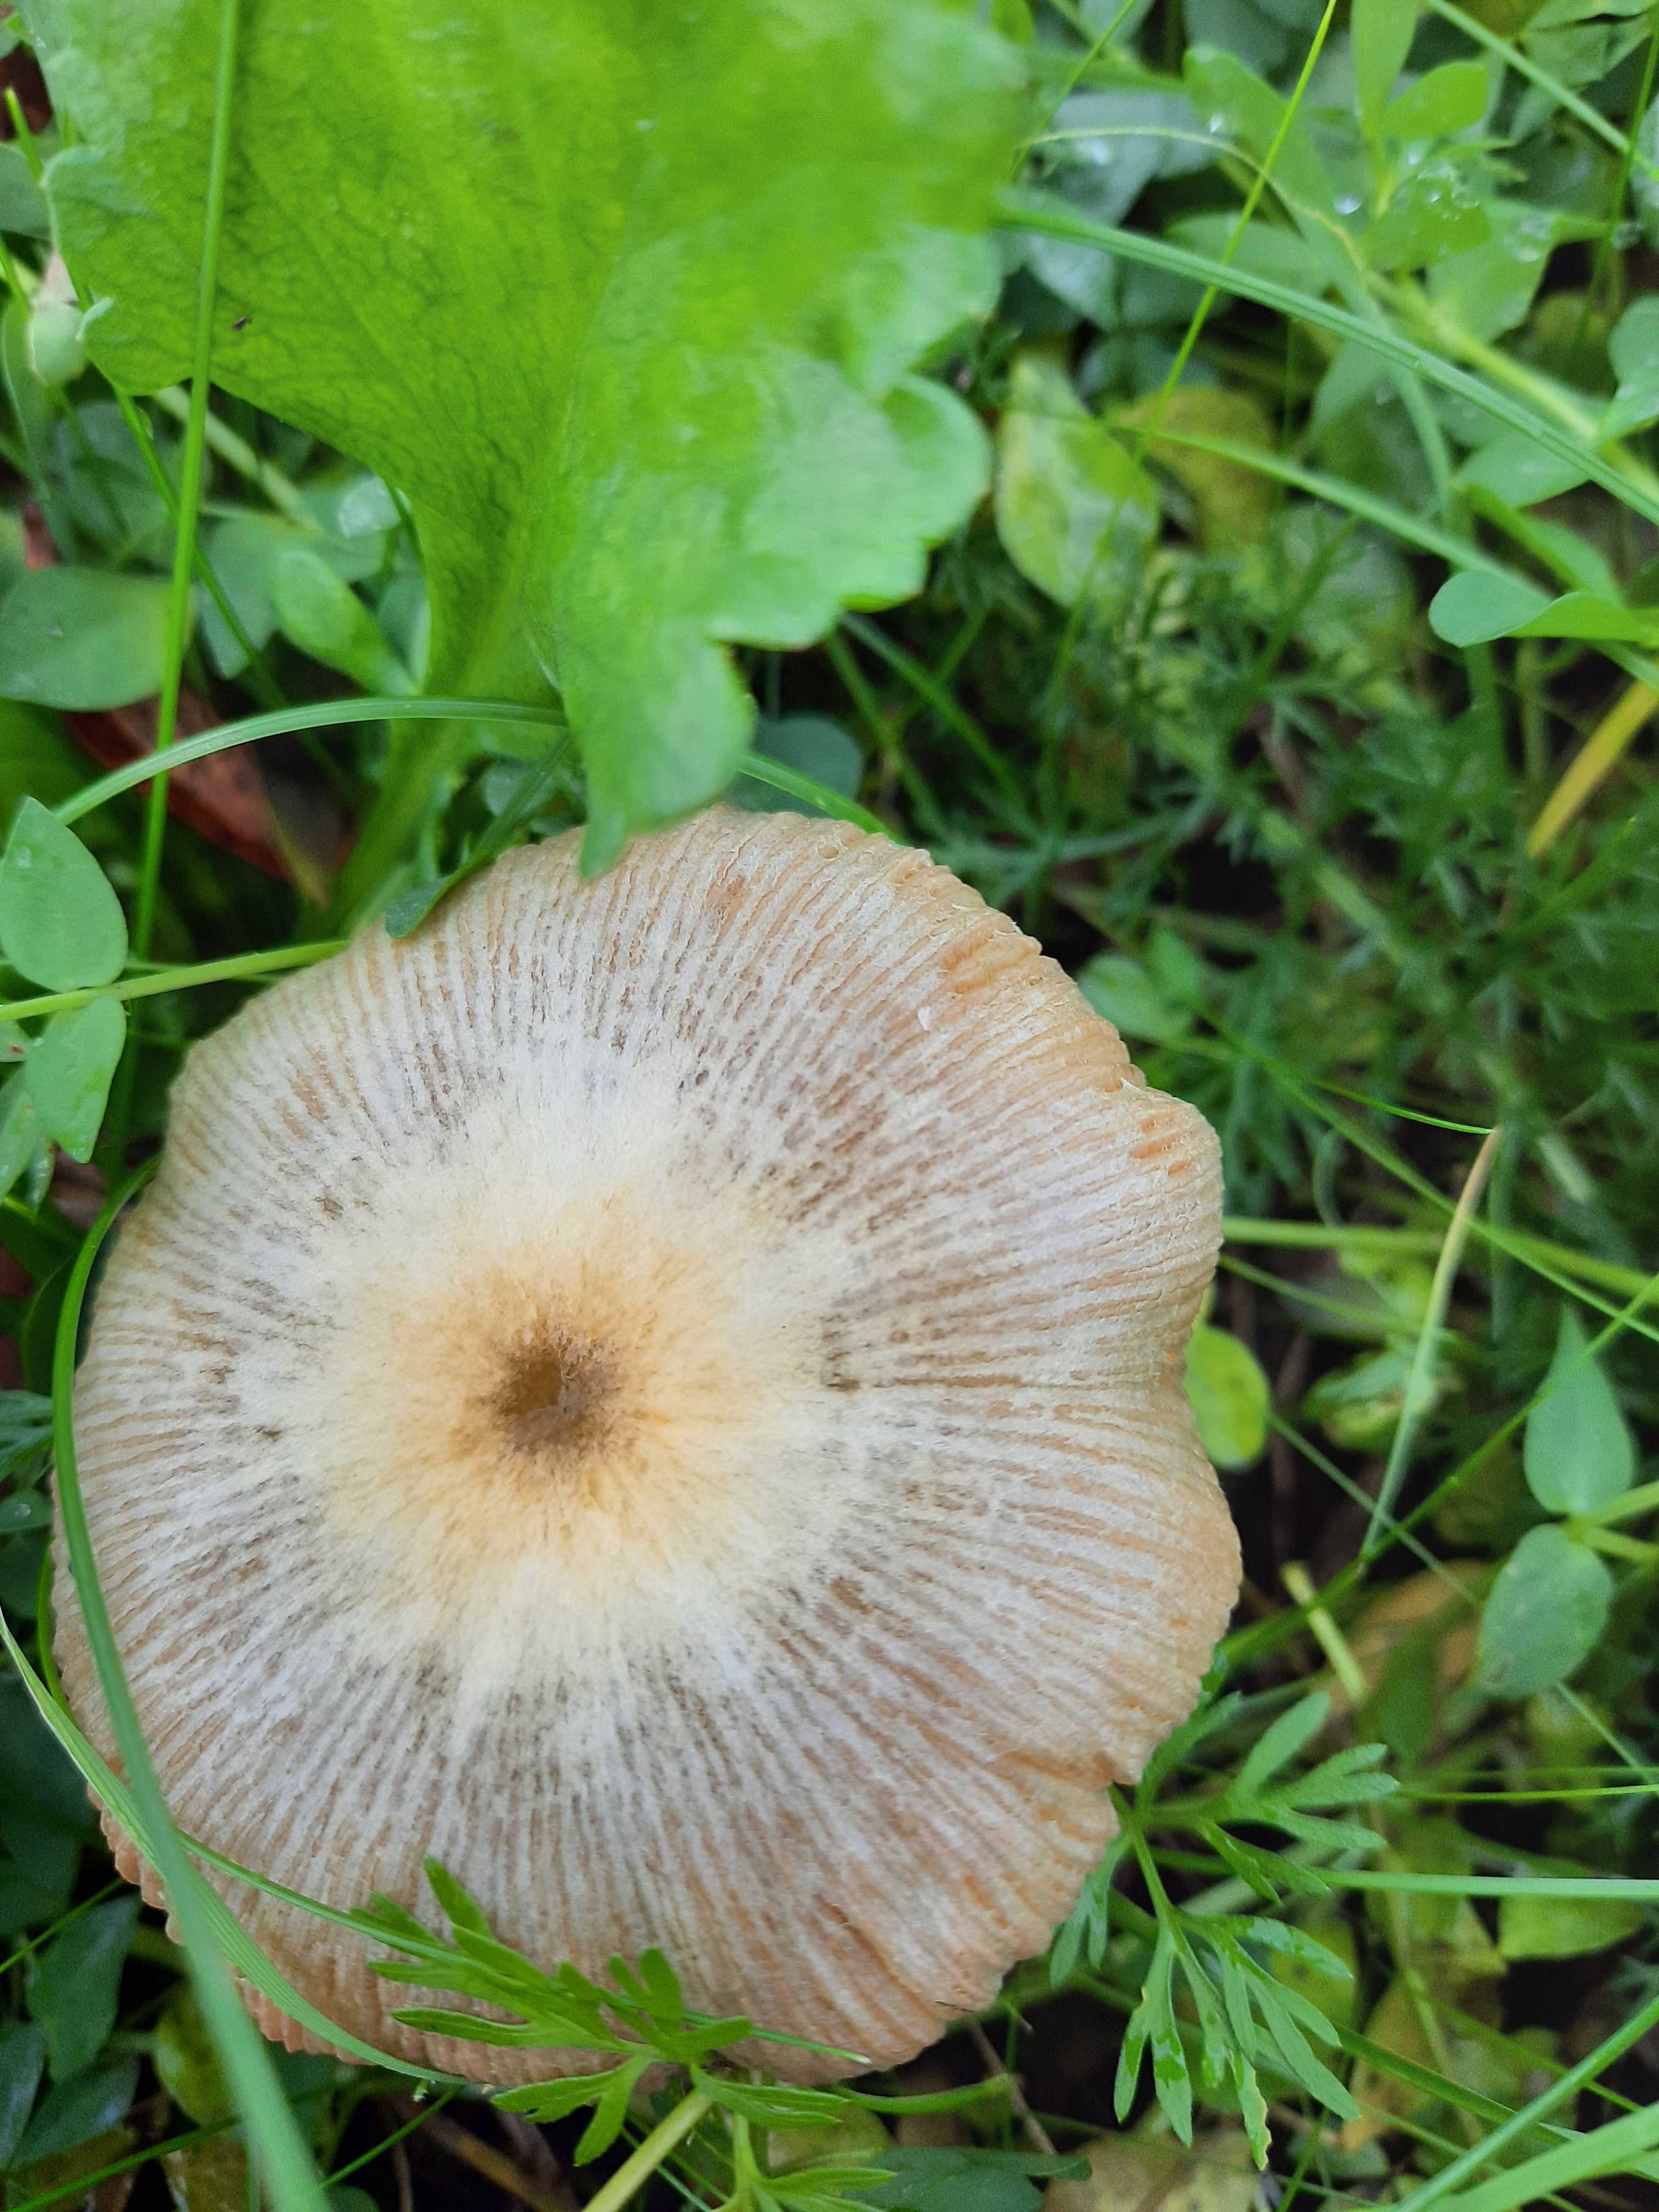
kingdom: Fungi
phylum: Basidiomycota
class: Agaricomycetes
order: Agaricales
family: Bolbitiaceae
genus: Bolbitius
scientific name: Bolbitius titubans
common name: almindelig gulhat
